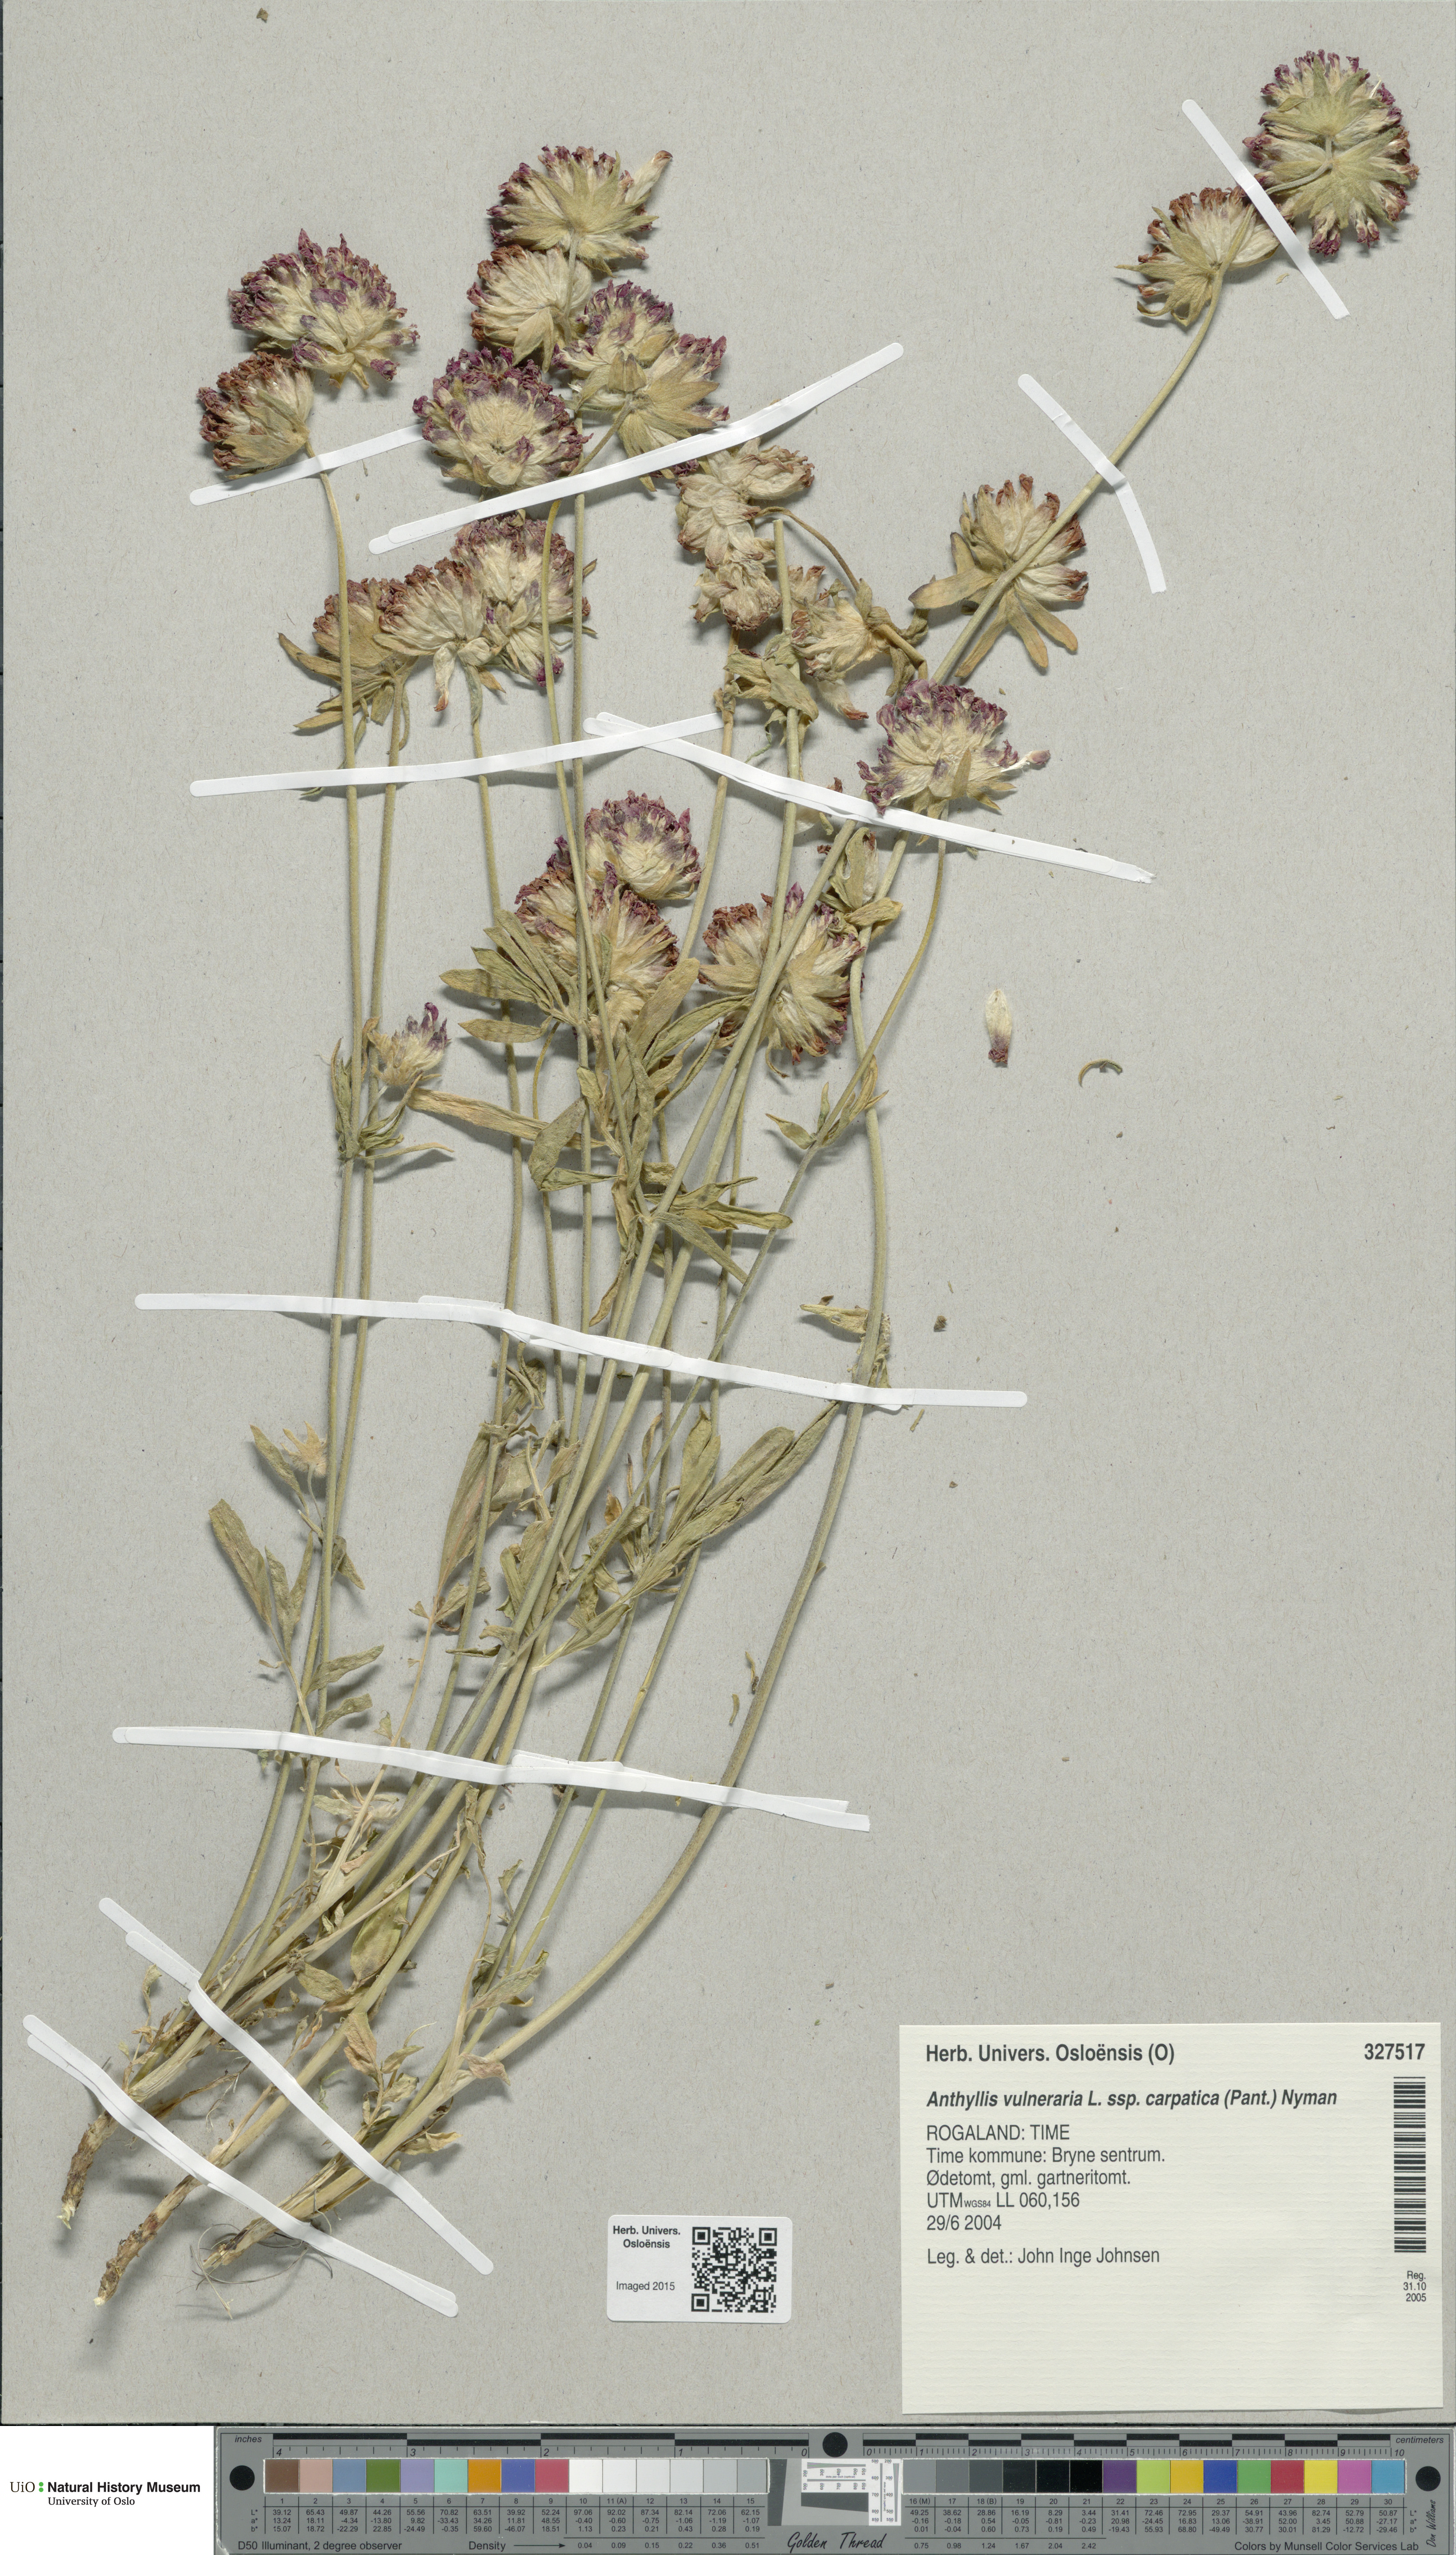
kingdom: Plantae
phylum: Tracheophyta
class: Magnoliopsida
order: Fabales
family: Fabaceae
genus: Anthyllis
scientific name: Anthyllis vulneraria
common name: Kidney vetch
